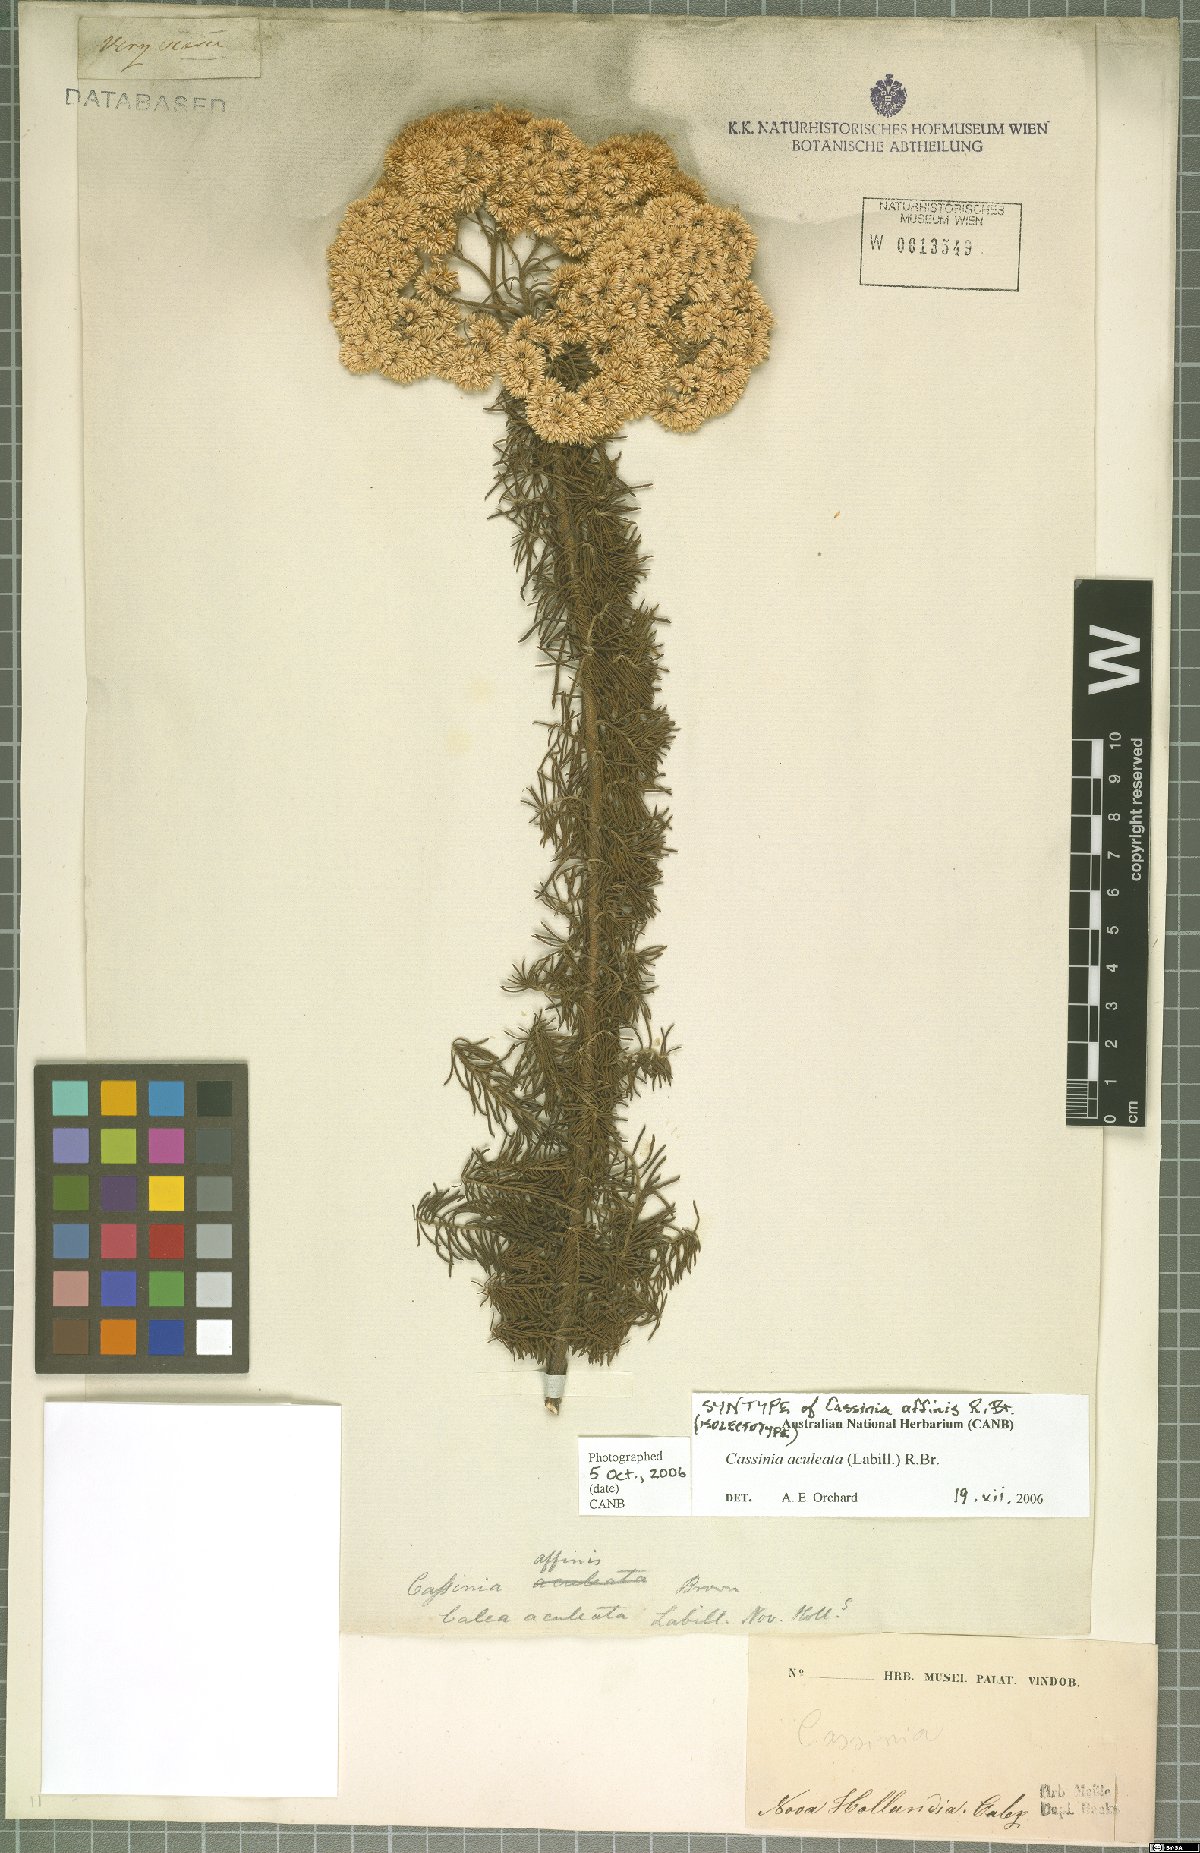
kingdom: Plantae
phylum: Tracheophyta
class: Magnoliopsida
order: Asterales
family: Asteraceae
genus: Cassinia
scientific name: Cassinia aculeata
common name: Australian tauhinu
